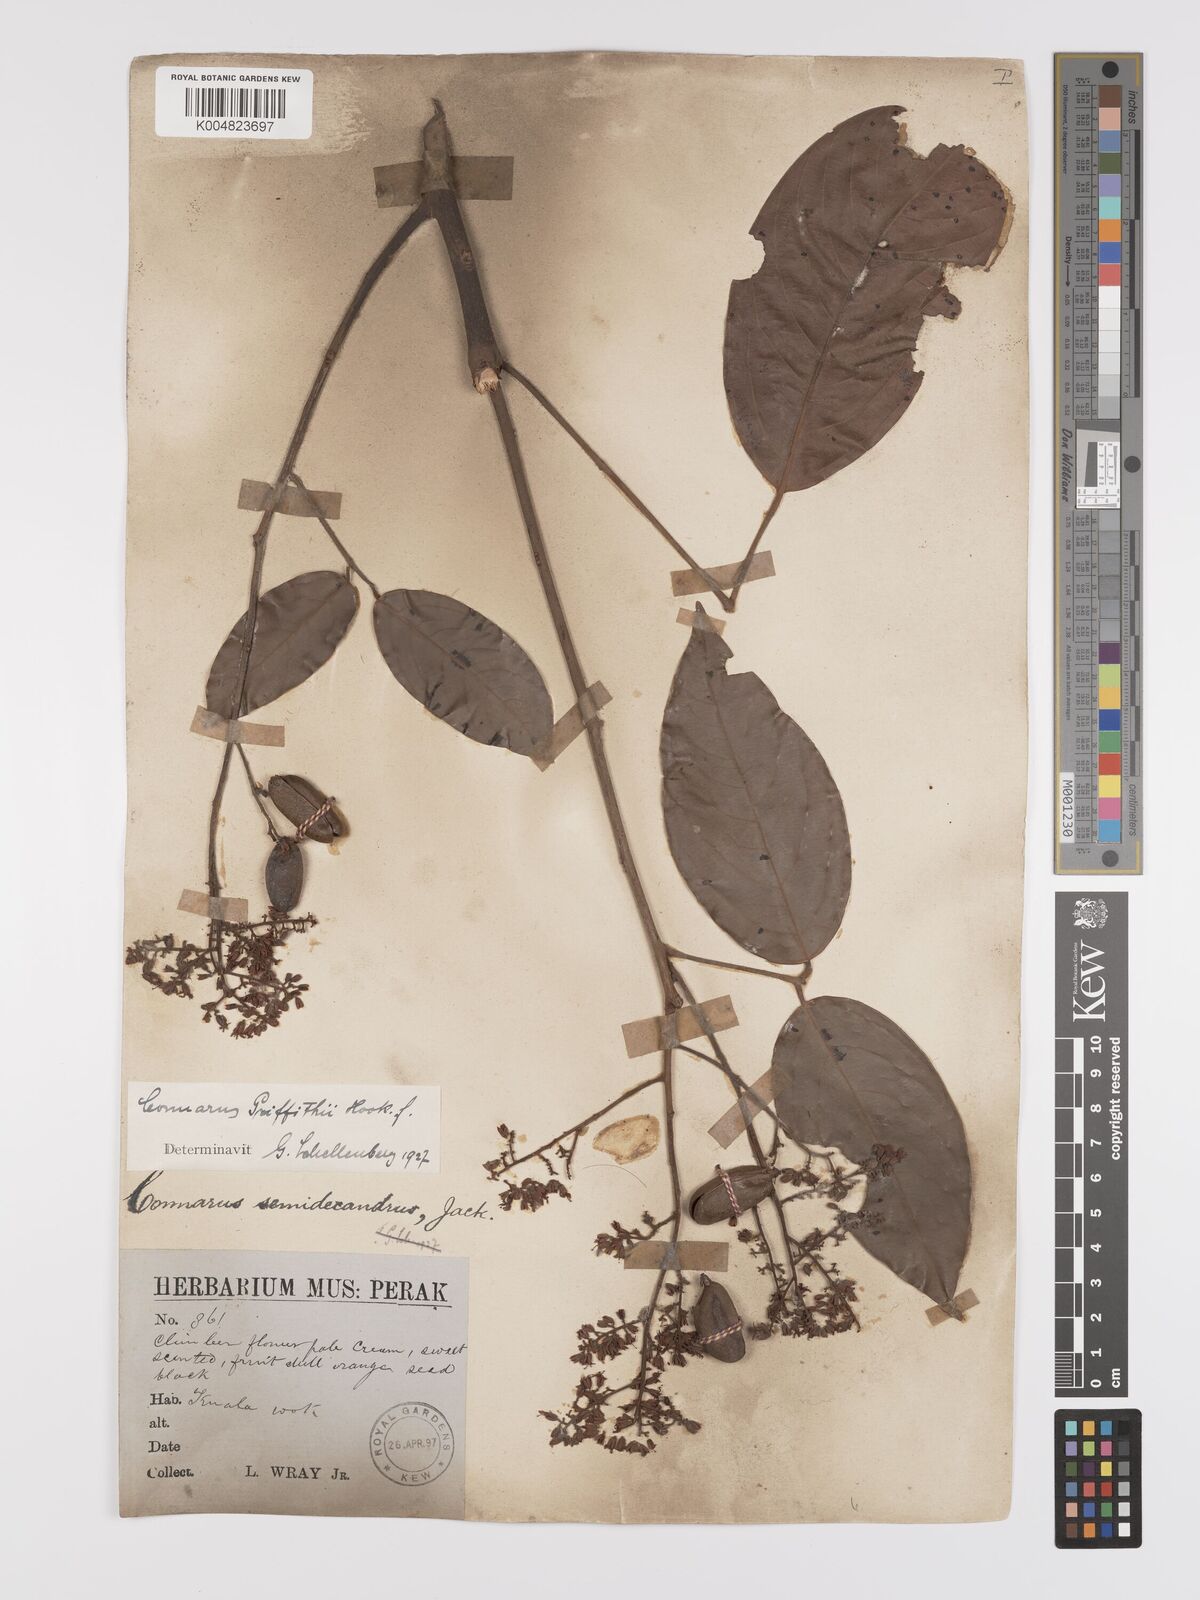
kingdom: Plantae
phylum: Tracheophyta
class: Magnoliopsida
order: Oxalidales
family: Connaraceae
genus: Connarus
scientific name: Connarus semidecandrus
